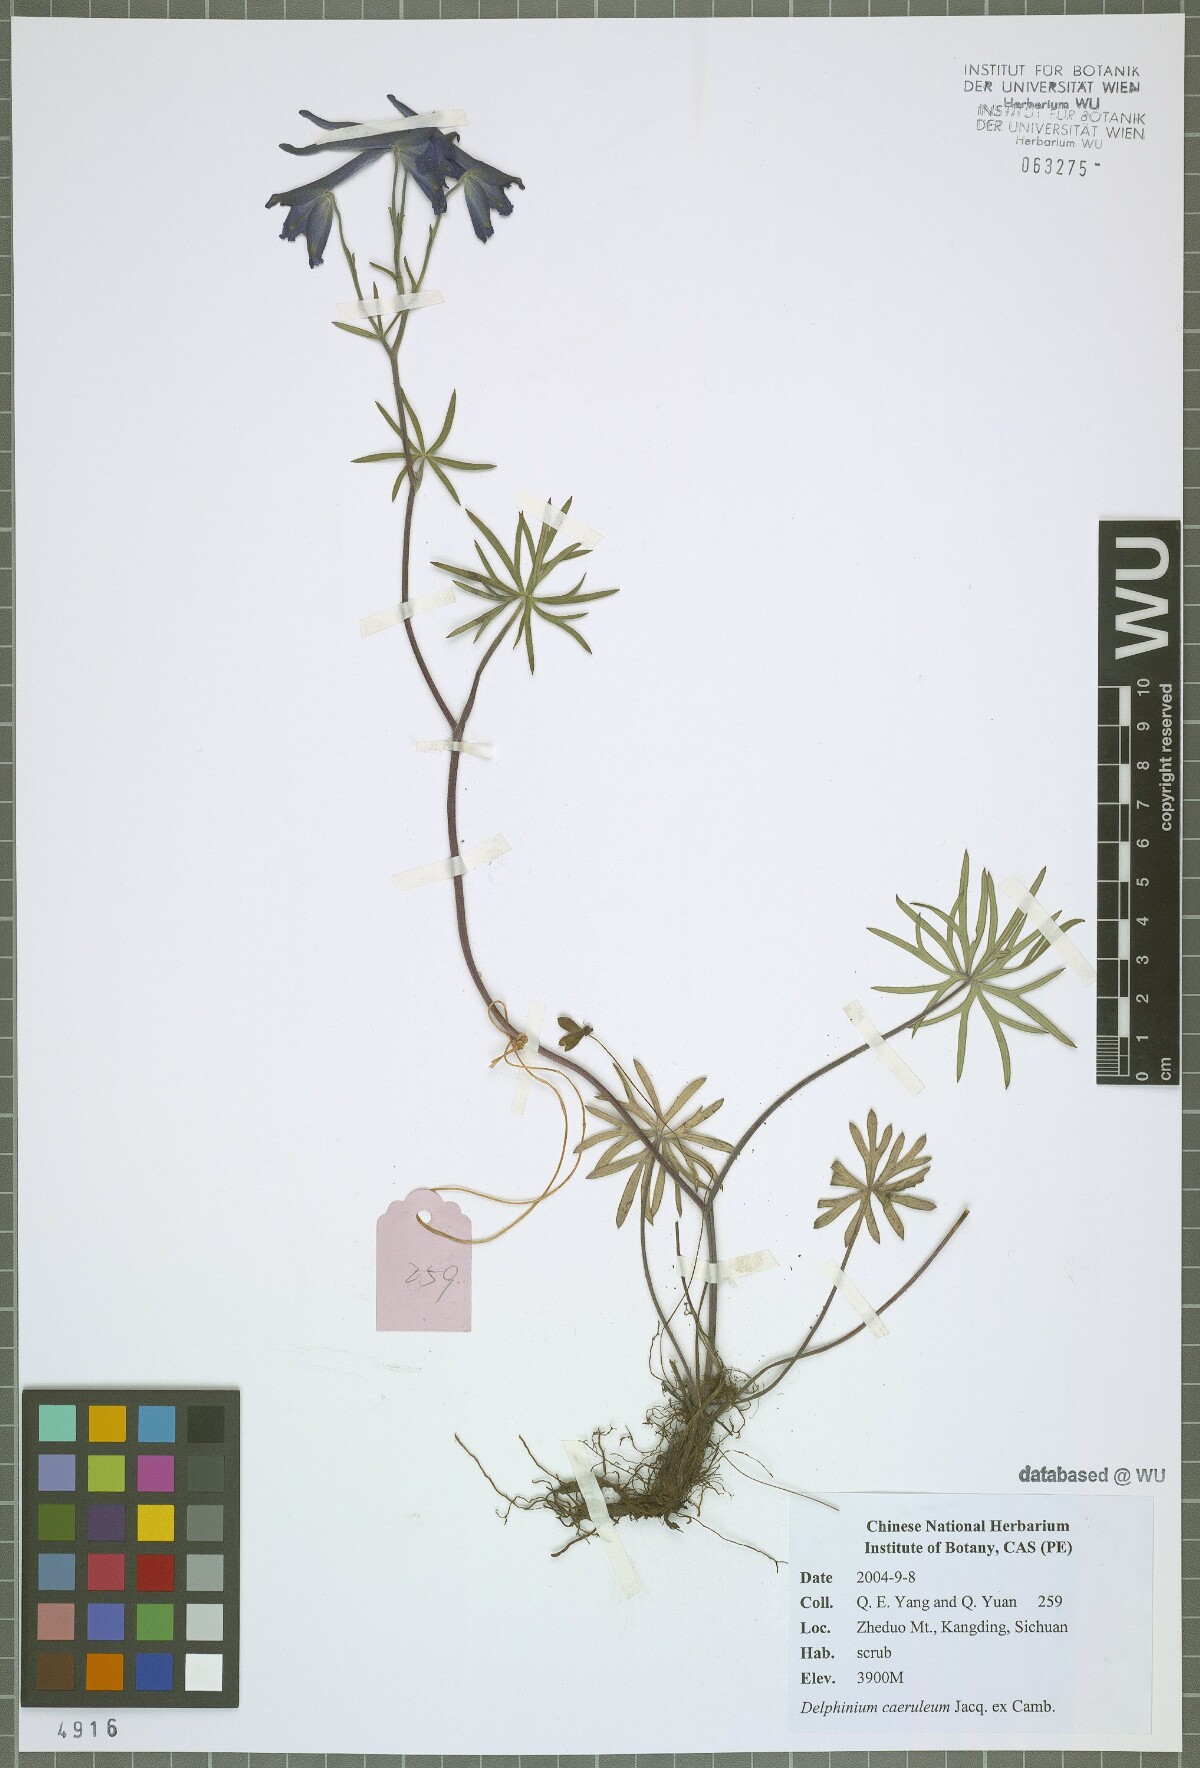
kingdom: Plantae
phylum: Tracheophyta
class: Magnoliopsida
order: Ranunculales
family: Ranunculaceae
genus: Delphinium
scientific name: Delphinium caeruleum
